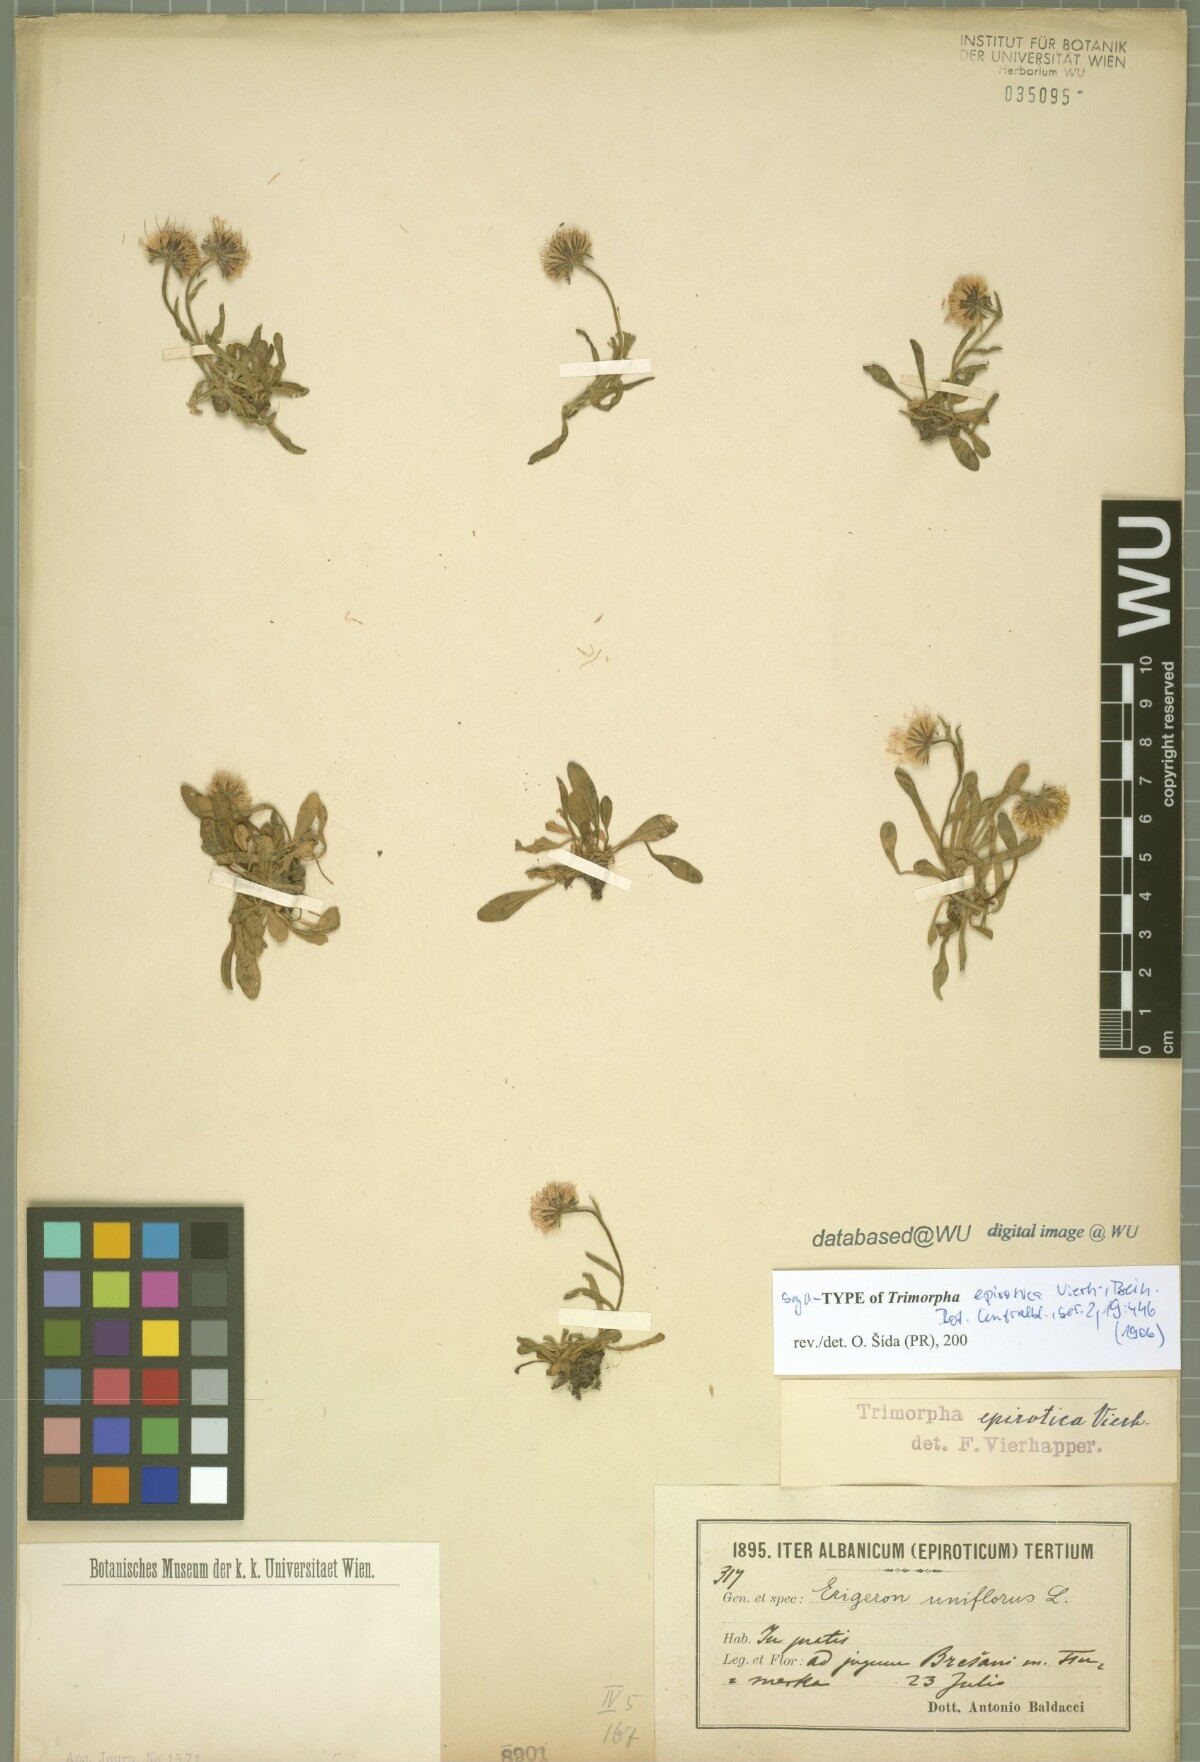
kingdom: Plantae
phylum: Tracheophyta
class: Magnoliopsida
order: Asterales
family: Asteraceae
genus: Erigeron
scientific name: Erigeron epiroticus
